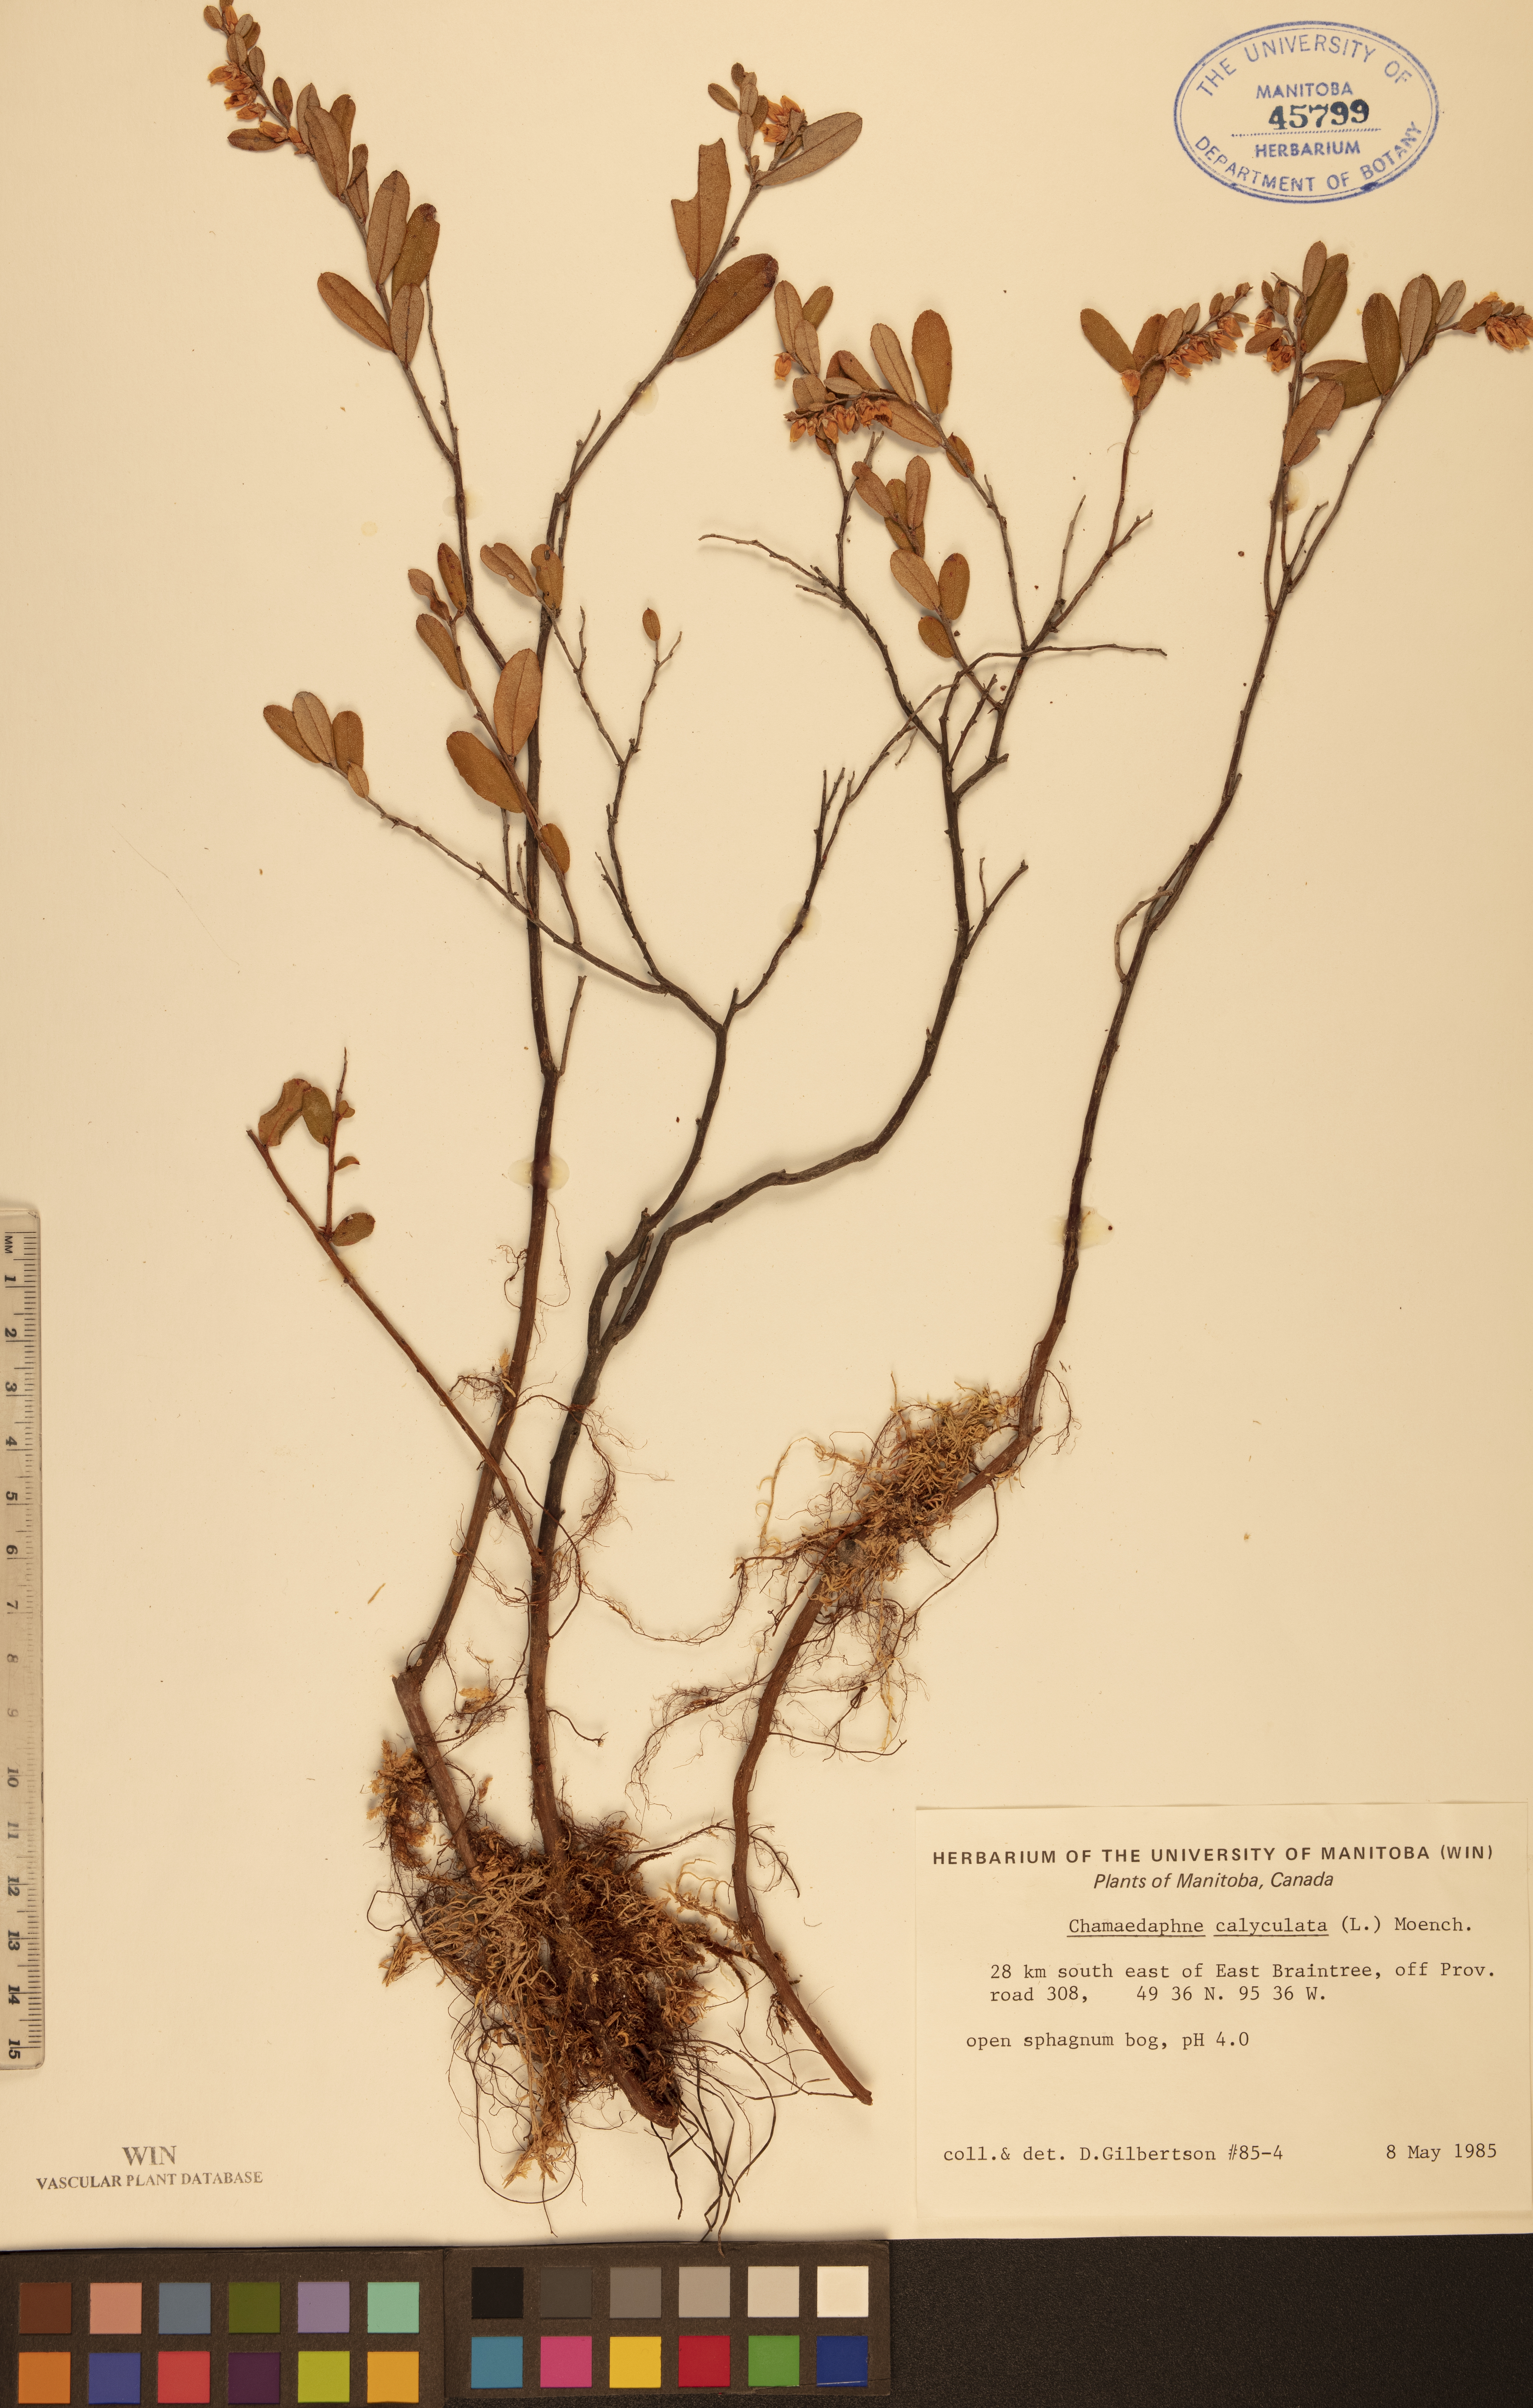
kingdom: Plantae
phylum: Tracheophyta
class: Magnoliopsida
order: Ericales
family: Ericaceae
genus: Chamaedaphne
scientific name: Chamaedaphne calyculata
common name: Leatherleaf
